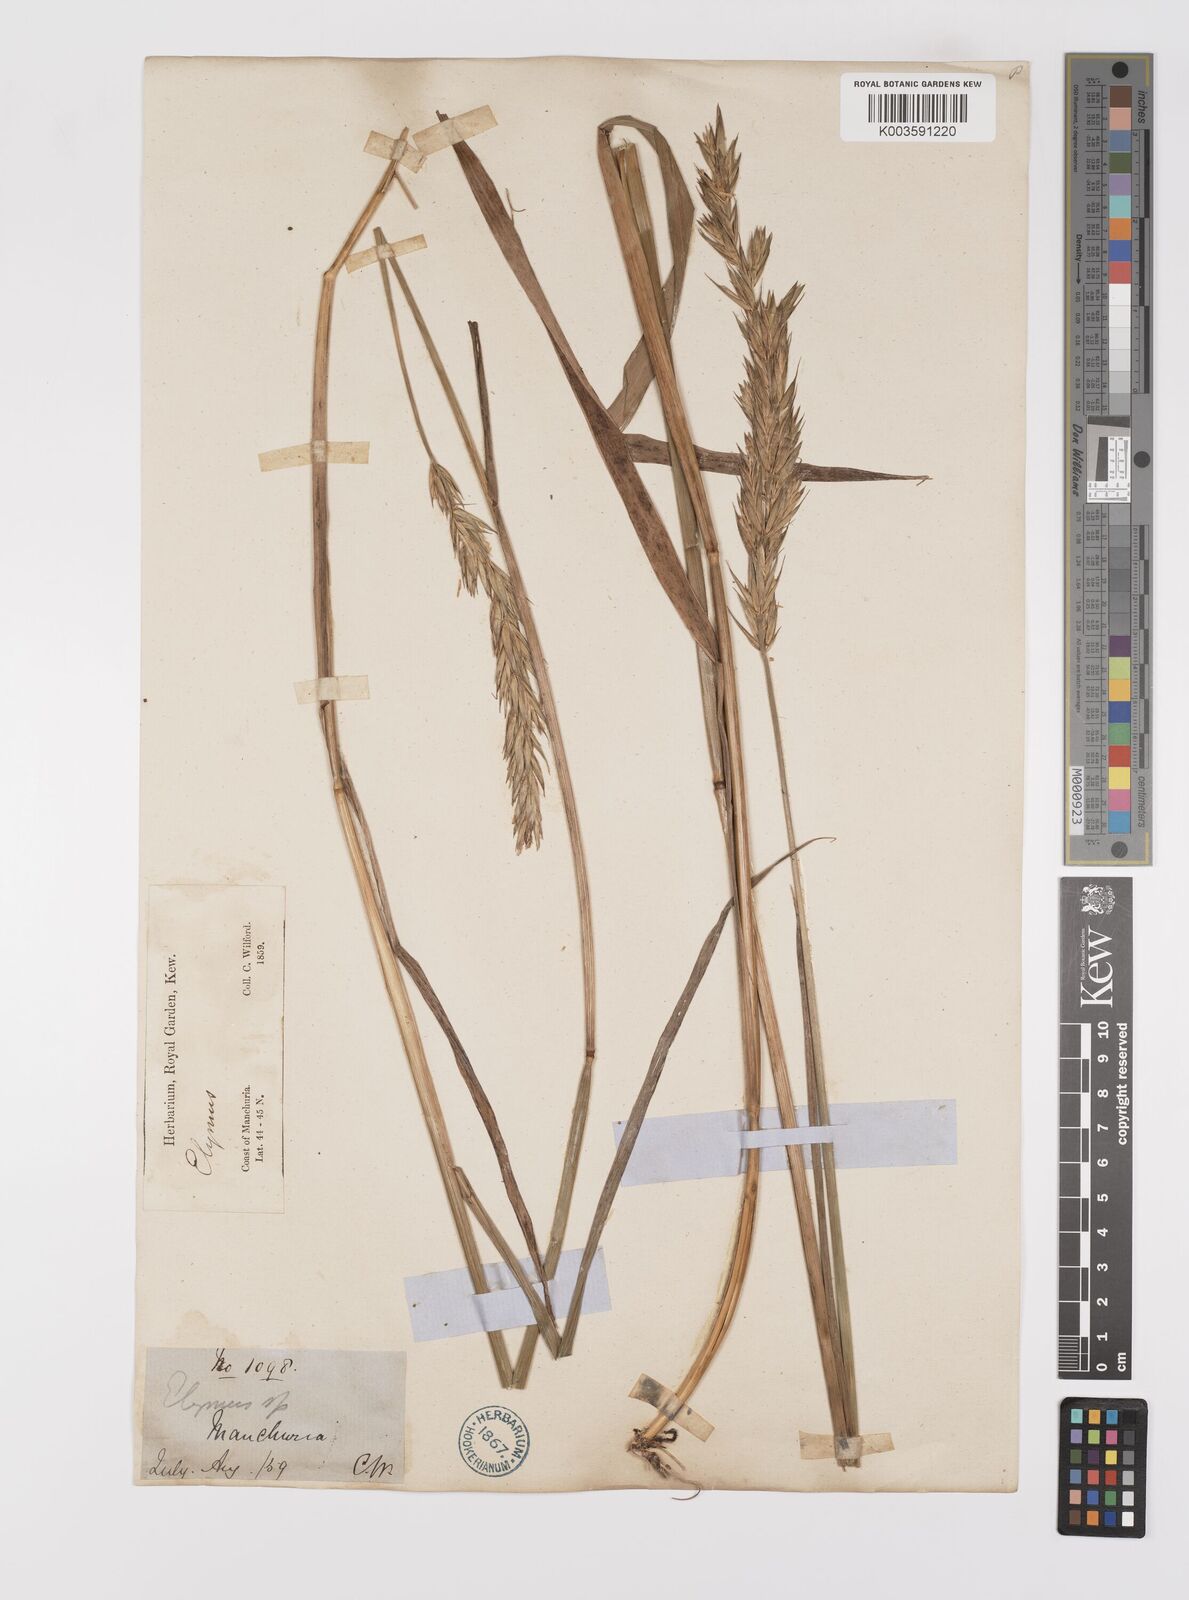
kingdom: Plantae
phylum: Tracheophyta
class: Liliopsida
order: Poales
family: Poaceae
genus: Leymus
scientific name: Leymus
